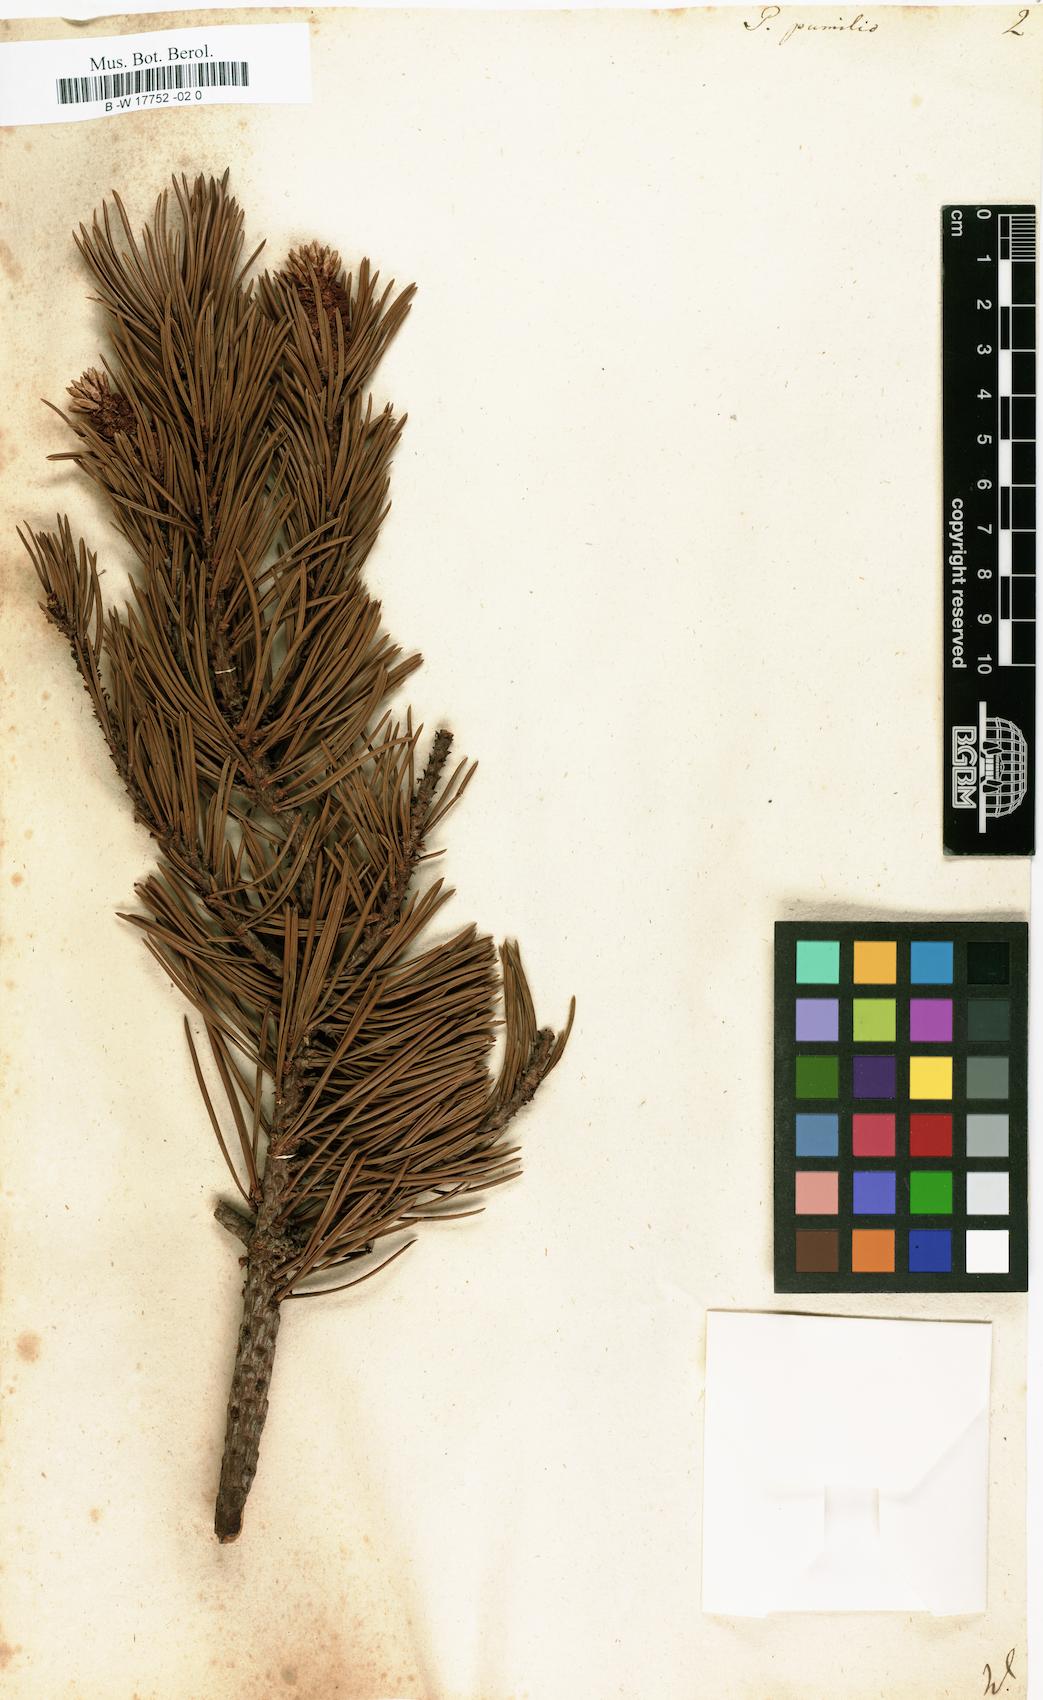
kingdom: Plantae
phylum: Tracheophyta
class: Pinopsida
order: Pinales
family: Pinaceae
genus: Pinus
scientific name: Pinus mugo
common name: Mugo pine
